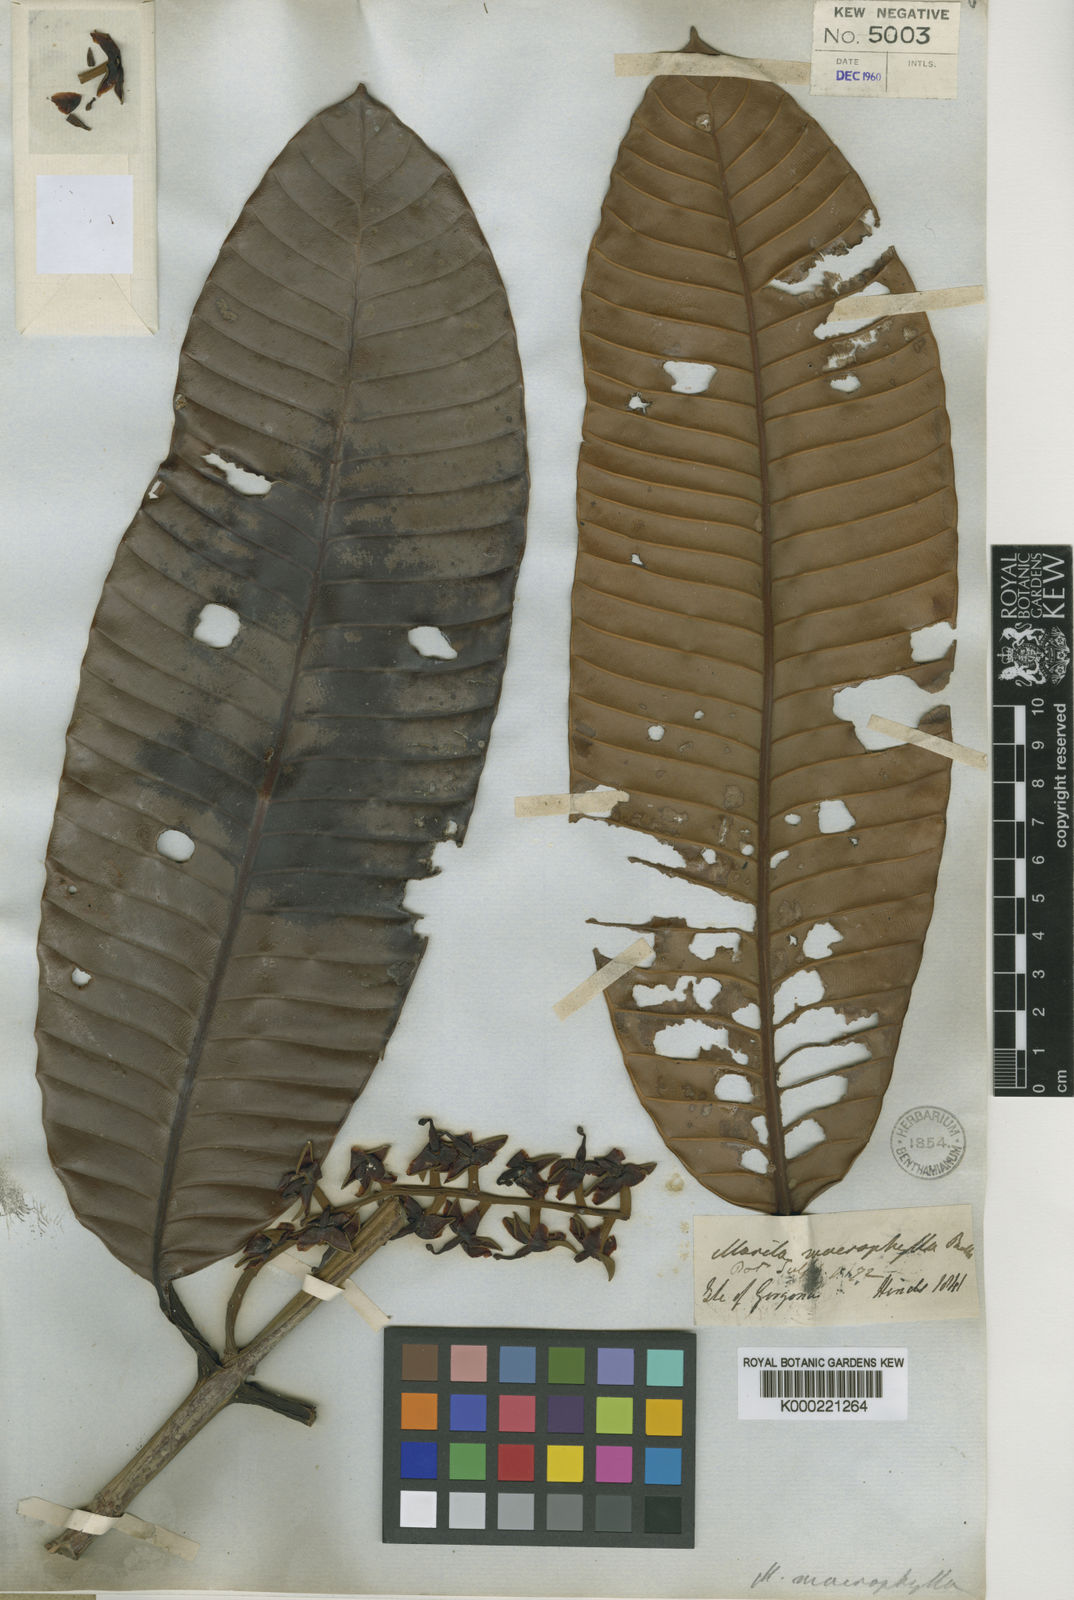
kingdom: Plantae
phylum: Tracheophyta
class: Magnoliopsida
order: Malpighiales
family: Calophyllaceae
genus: Marila
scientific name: Marila macrophylla
